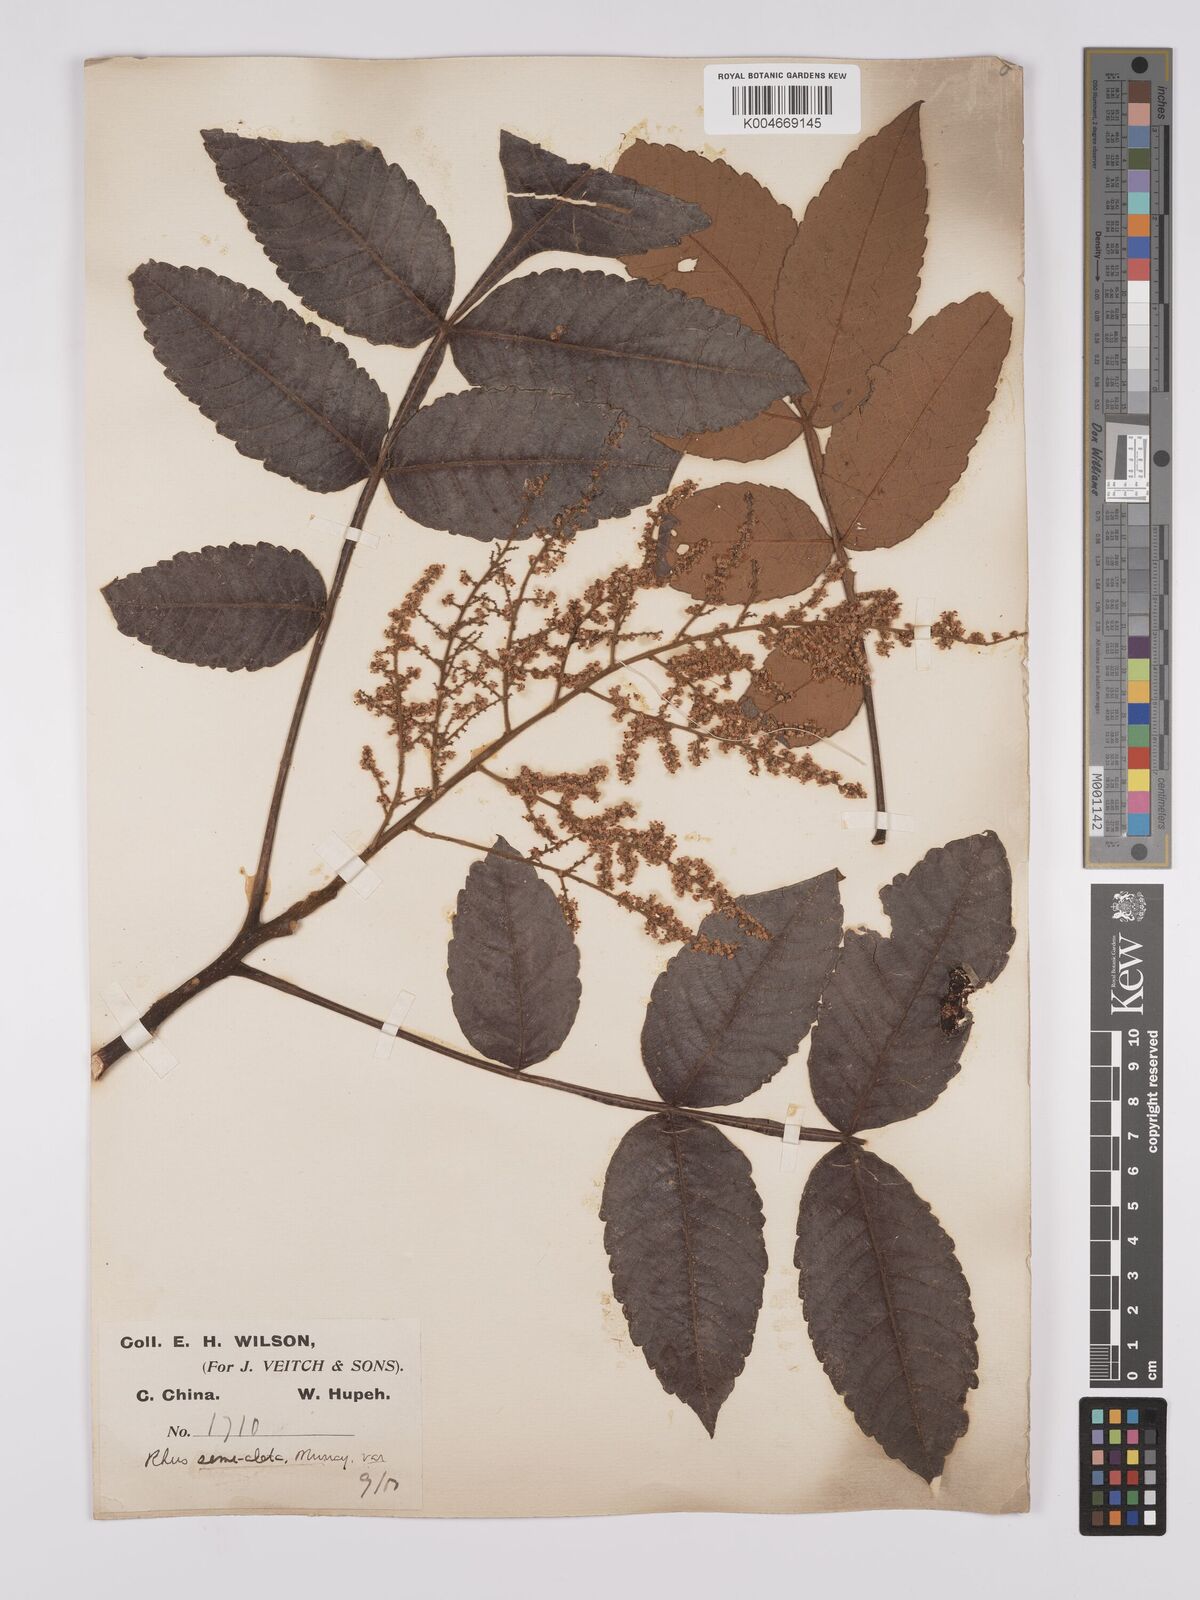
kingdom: Plantae
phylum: Tracheophyta
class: Magnoliopsida
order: Sapindales
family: Simaroubaceae
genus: Brucea
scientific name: Brucea javanica
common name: Macassar kernels
